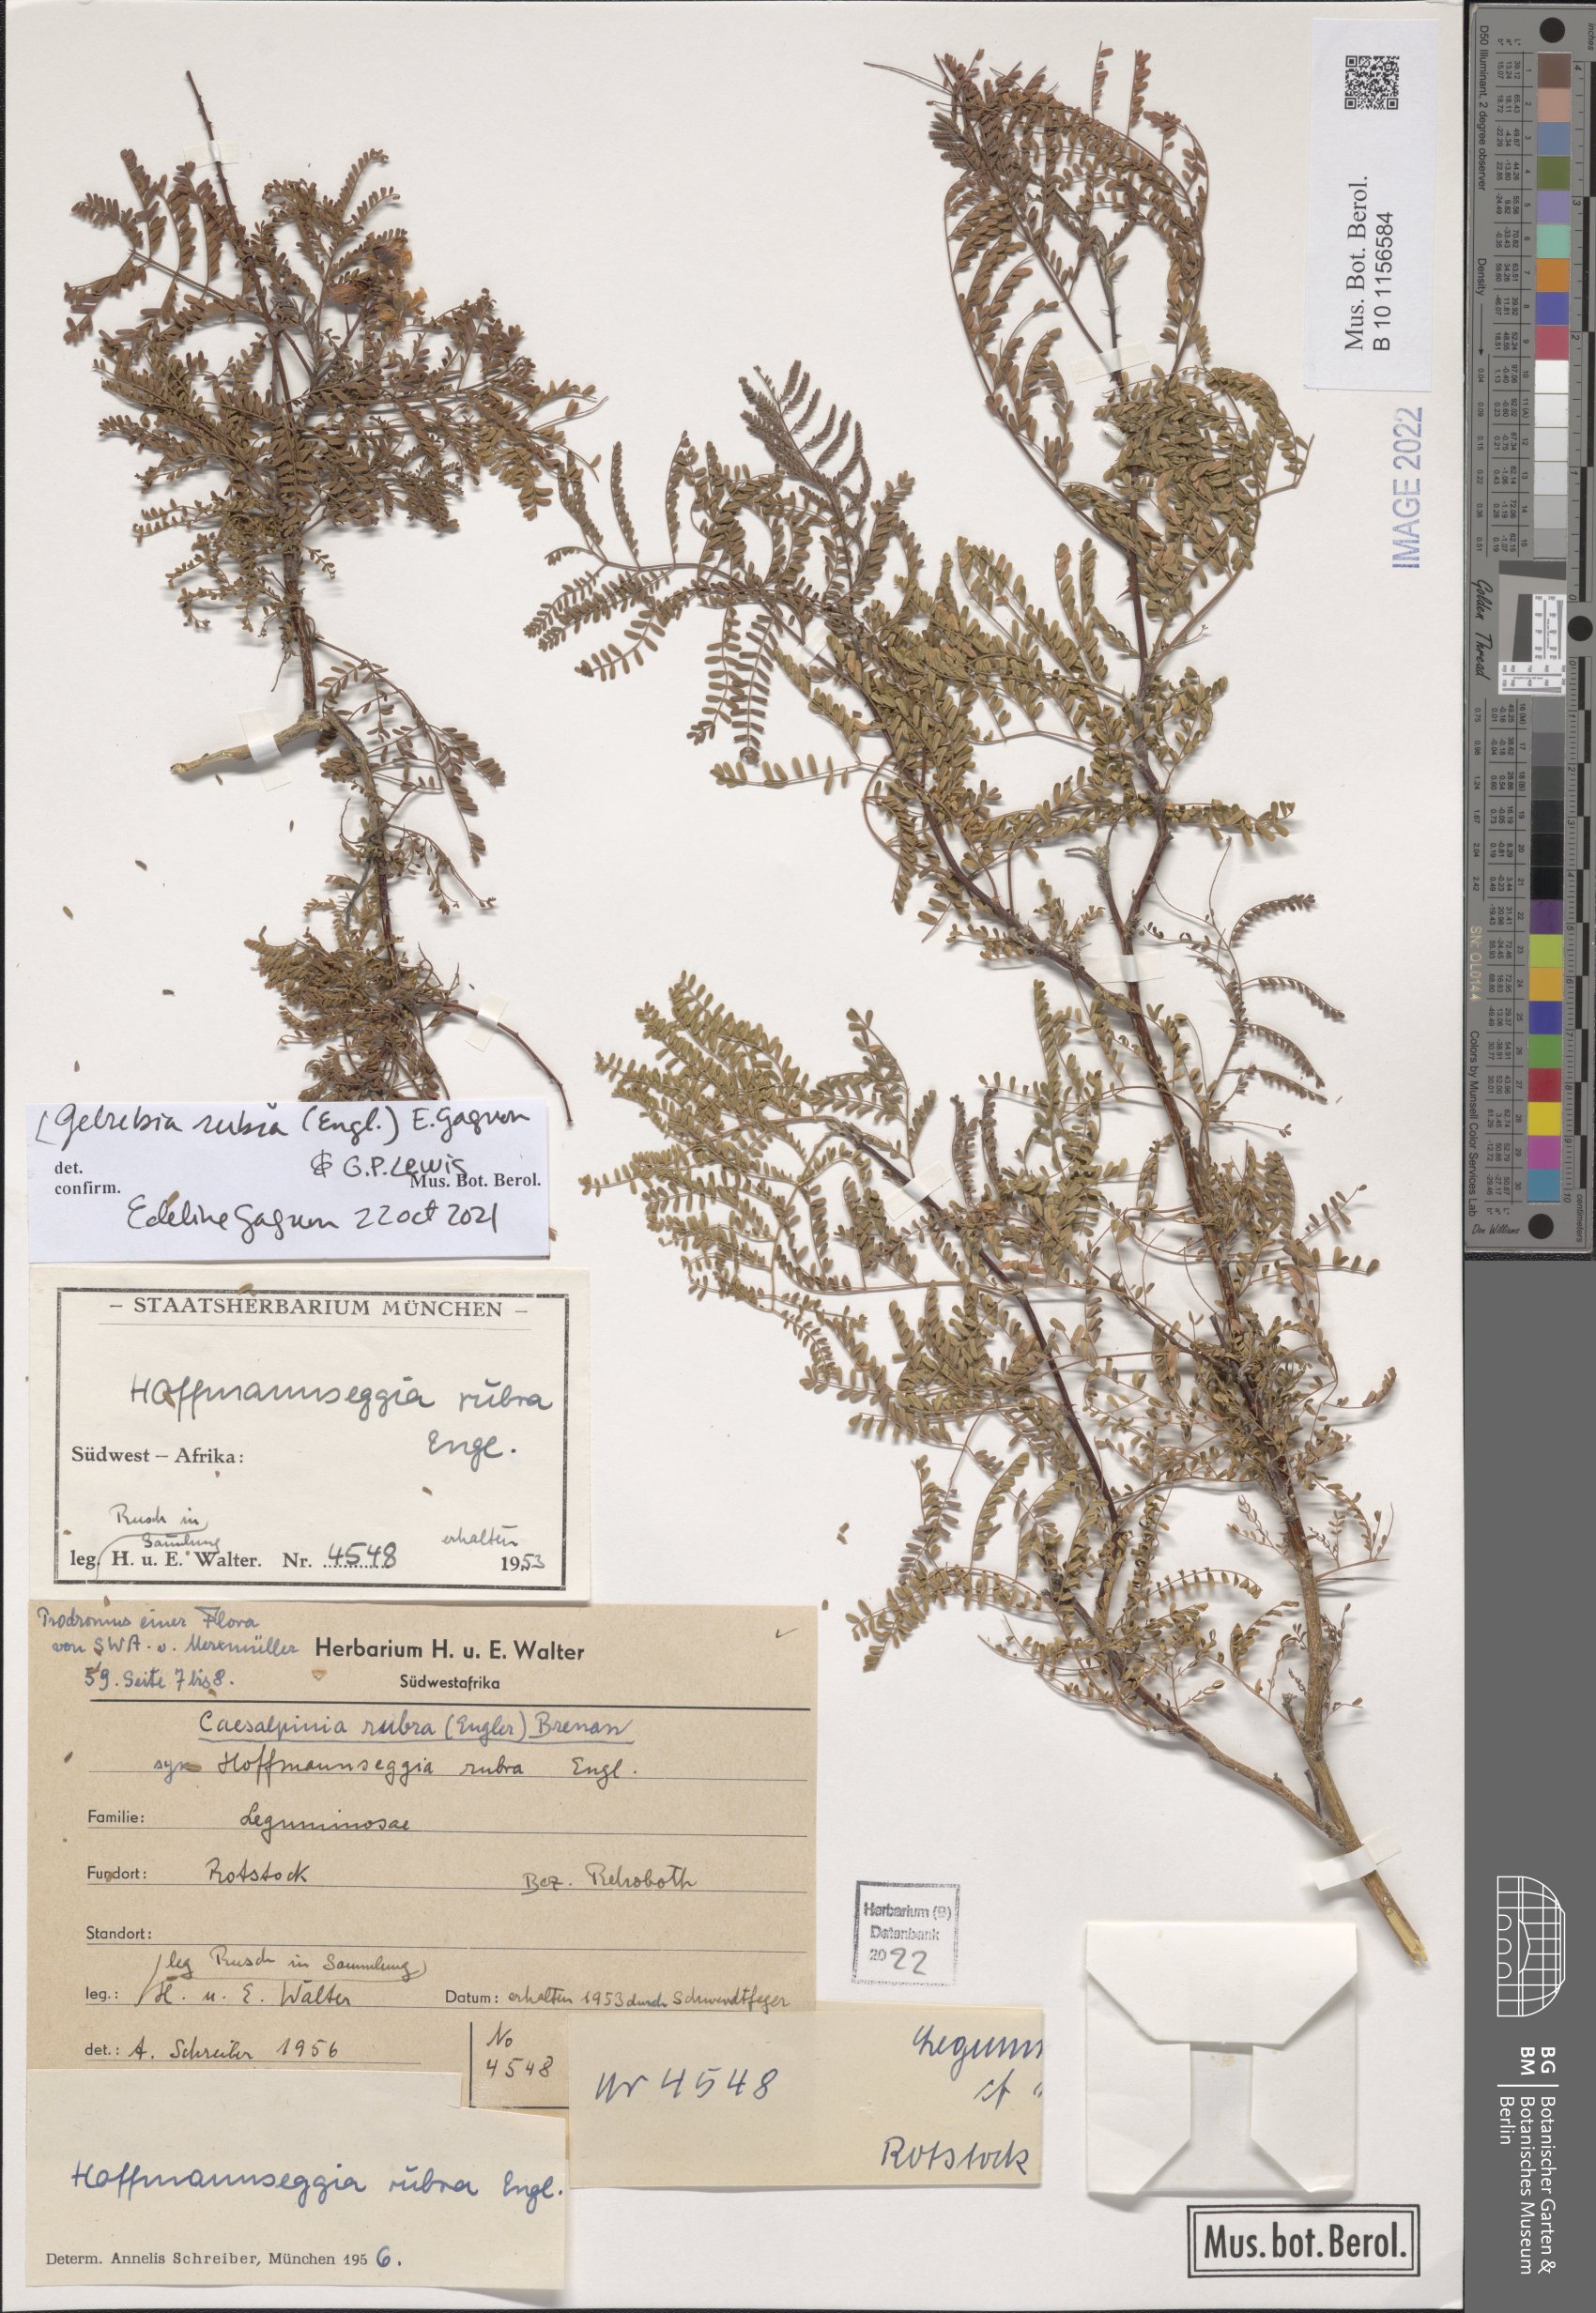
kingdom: Plantae
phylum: Tracheophyta
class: Magnoliopsida
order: Fabales
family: Fabaceae
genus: Gelrebia
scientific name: Gelrebia rubra
